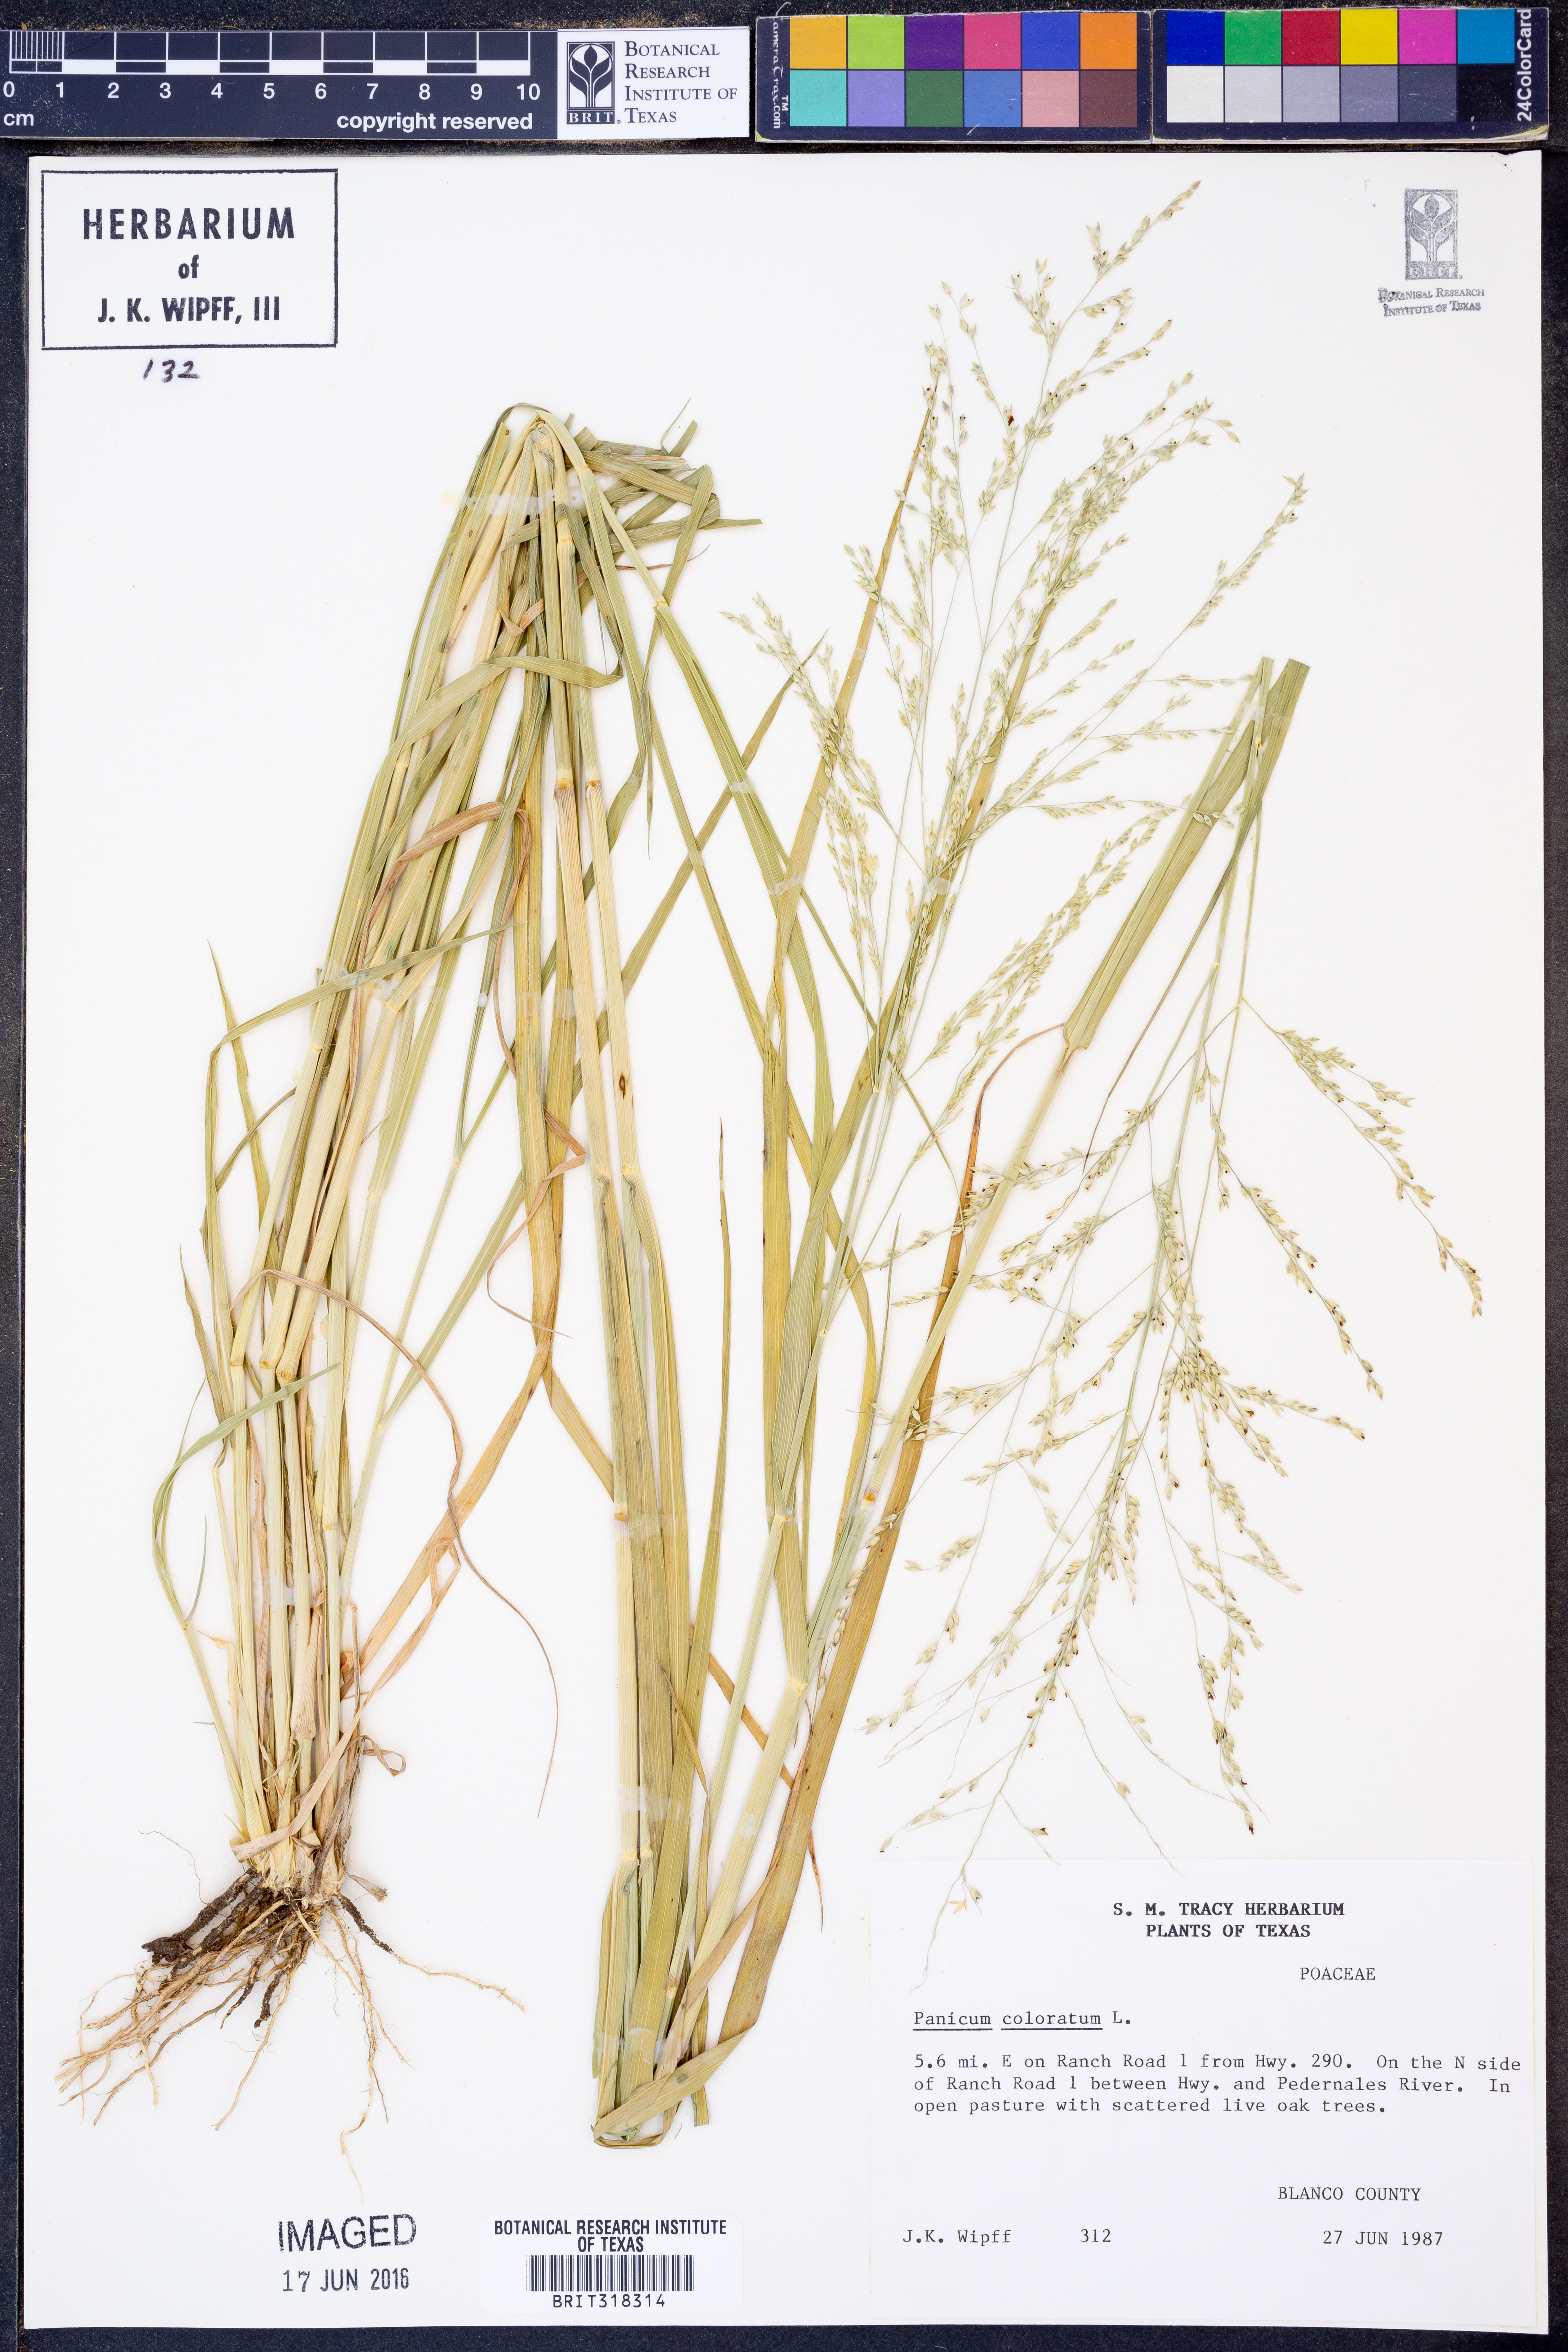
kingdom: Plantae
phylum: Tracheophyta
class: Liliopsida
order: Poales
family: Poaceae
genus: Panicum
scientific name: Panicum coloratum
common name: Kleingrass
